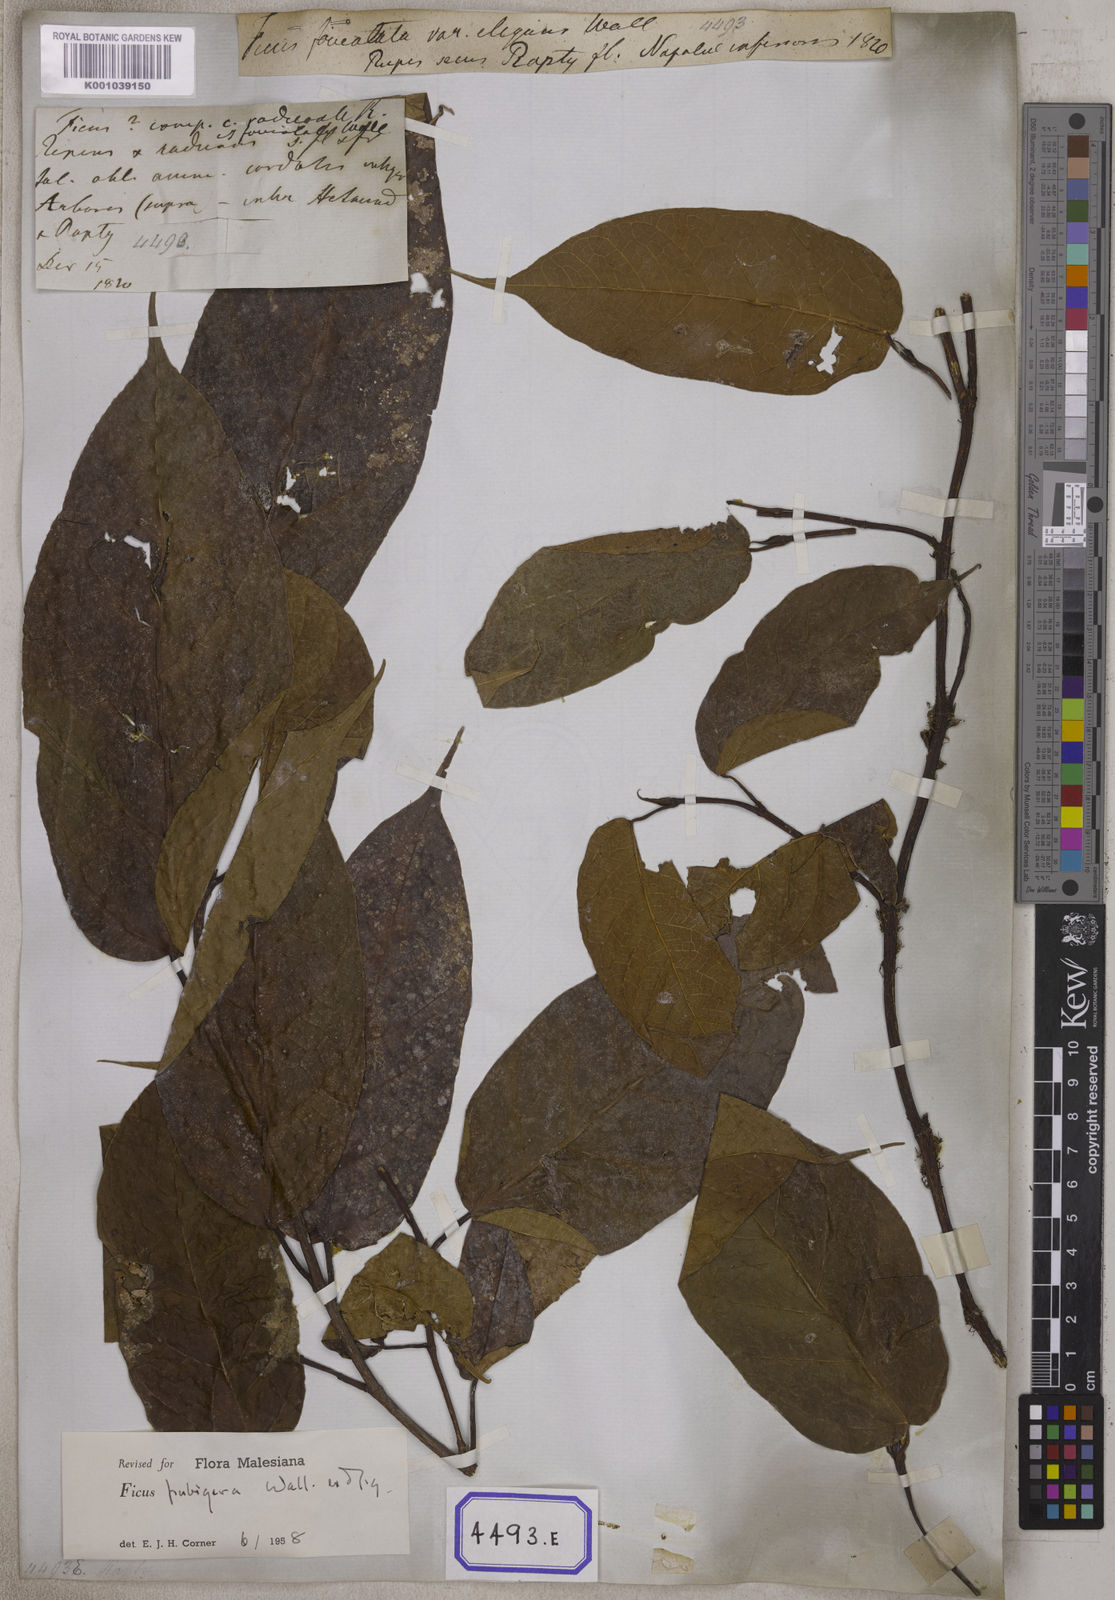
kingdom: Plantae
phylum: Tracheophyta
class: Magnoliopsida
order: Rosales
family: Moraceae
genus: Ficus
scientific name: Ficus
